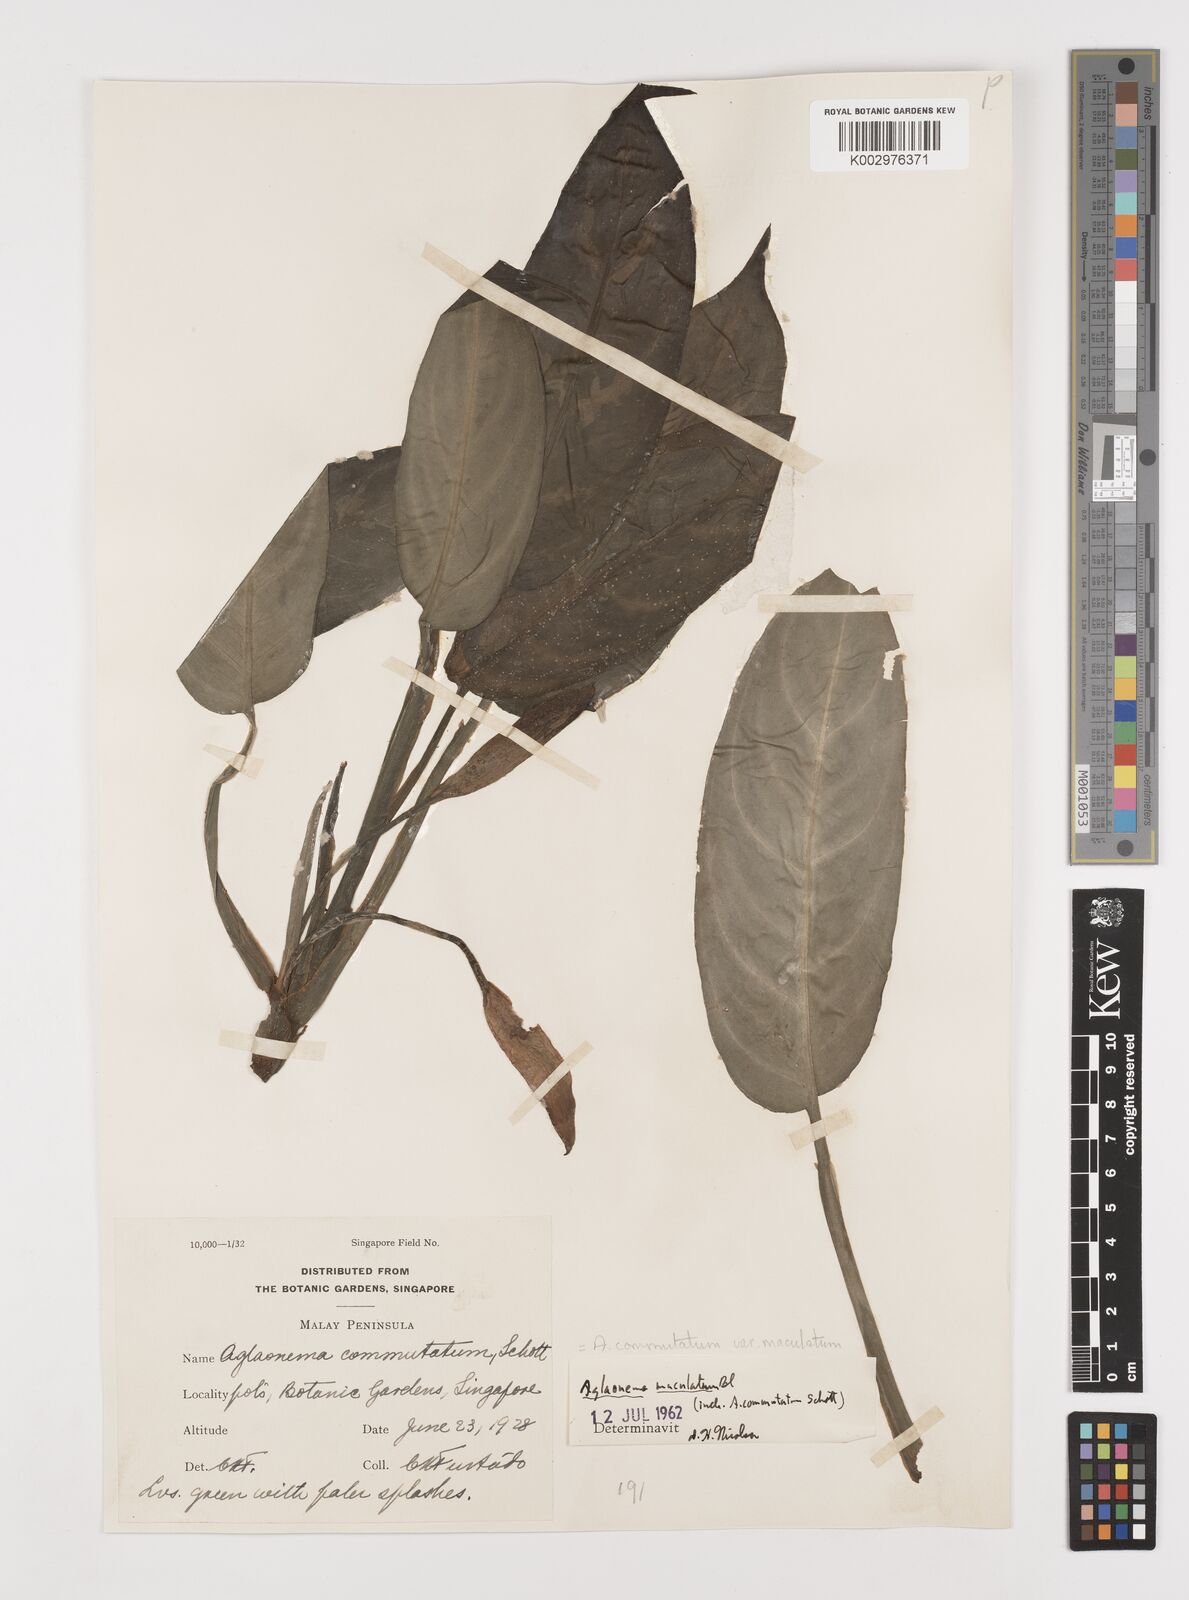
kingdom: Plantae
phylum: Tracheophyta
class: Liliopsida
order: Alismatales
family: Araceae
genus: Aglaonema
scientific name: Aglaonema commutatum
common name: Philippine evergreen
